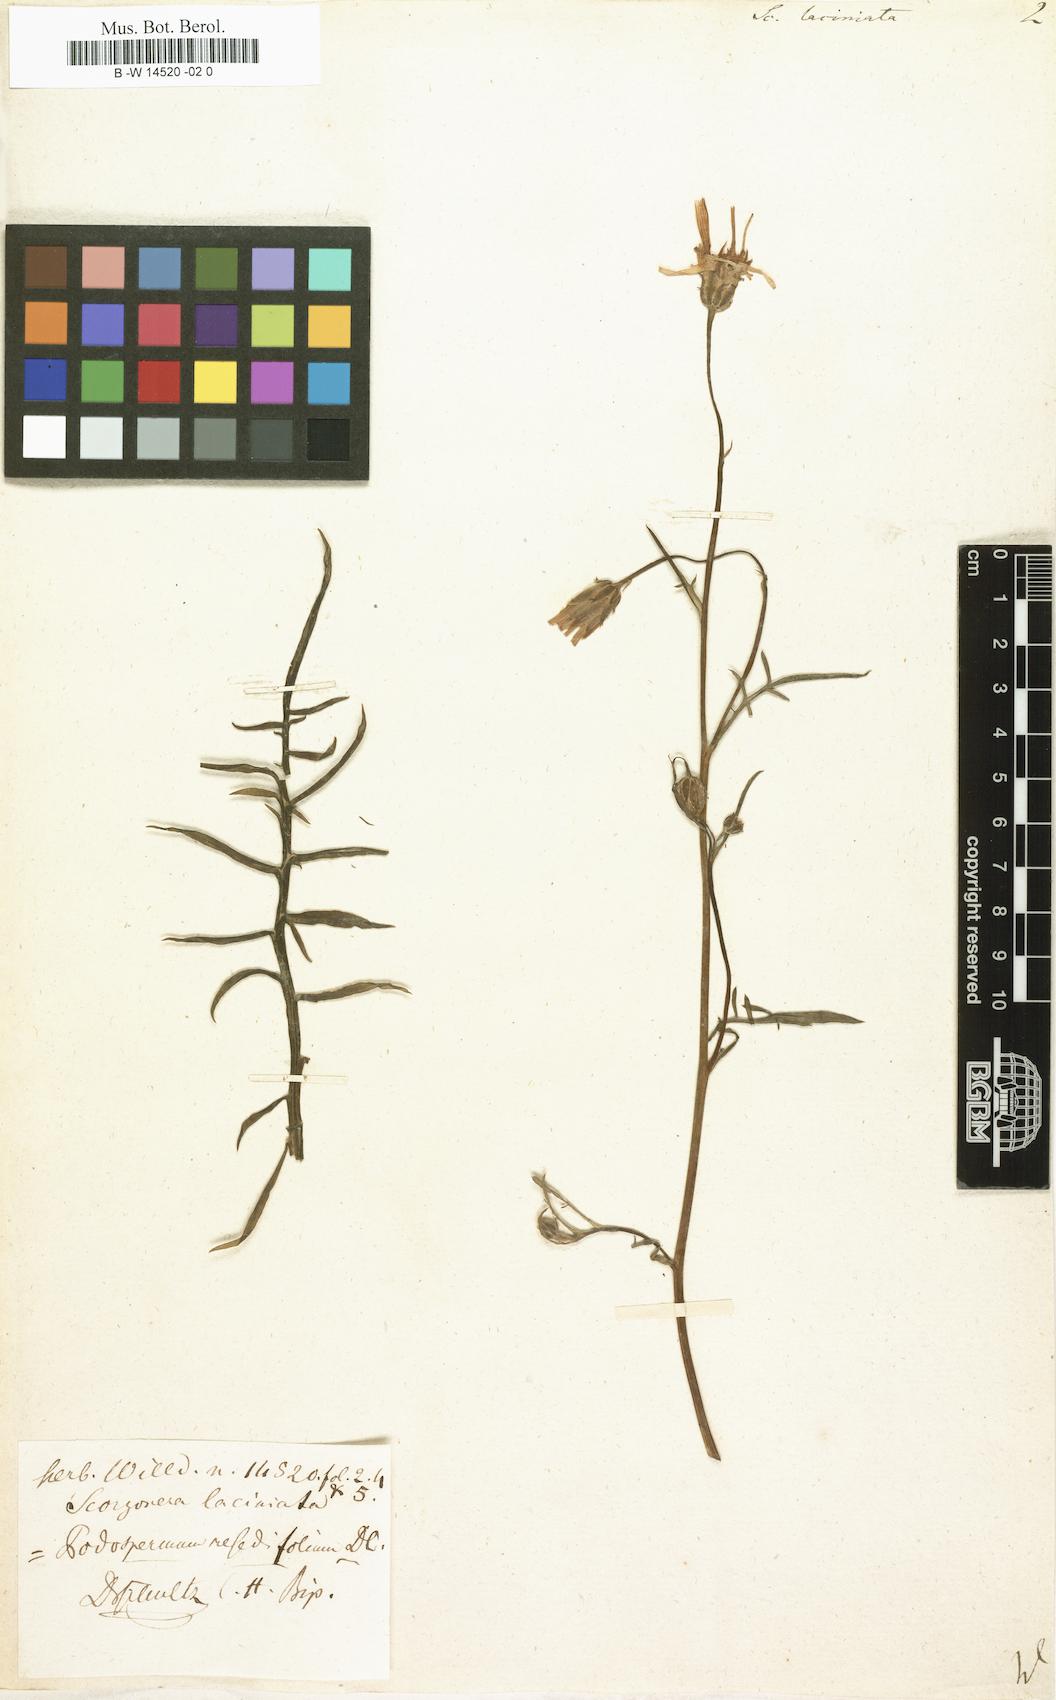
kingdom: Plantae
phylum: Tracheophyta
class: Magnoliopsida
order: Asterales
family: Asteraceae
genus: Scorzonera
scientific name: Scorzonera laciniata
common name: Cutleaf vipergrass
